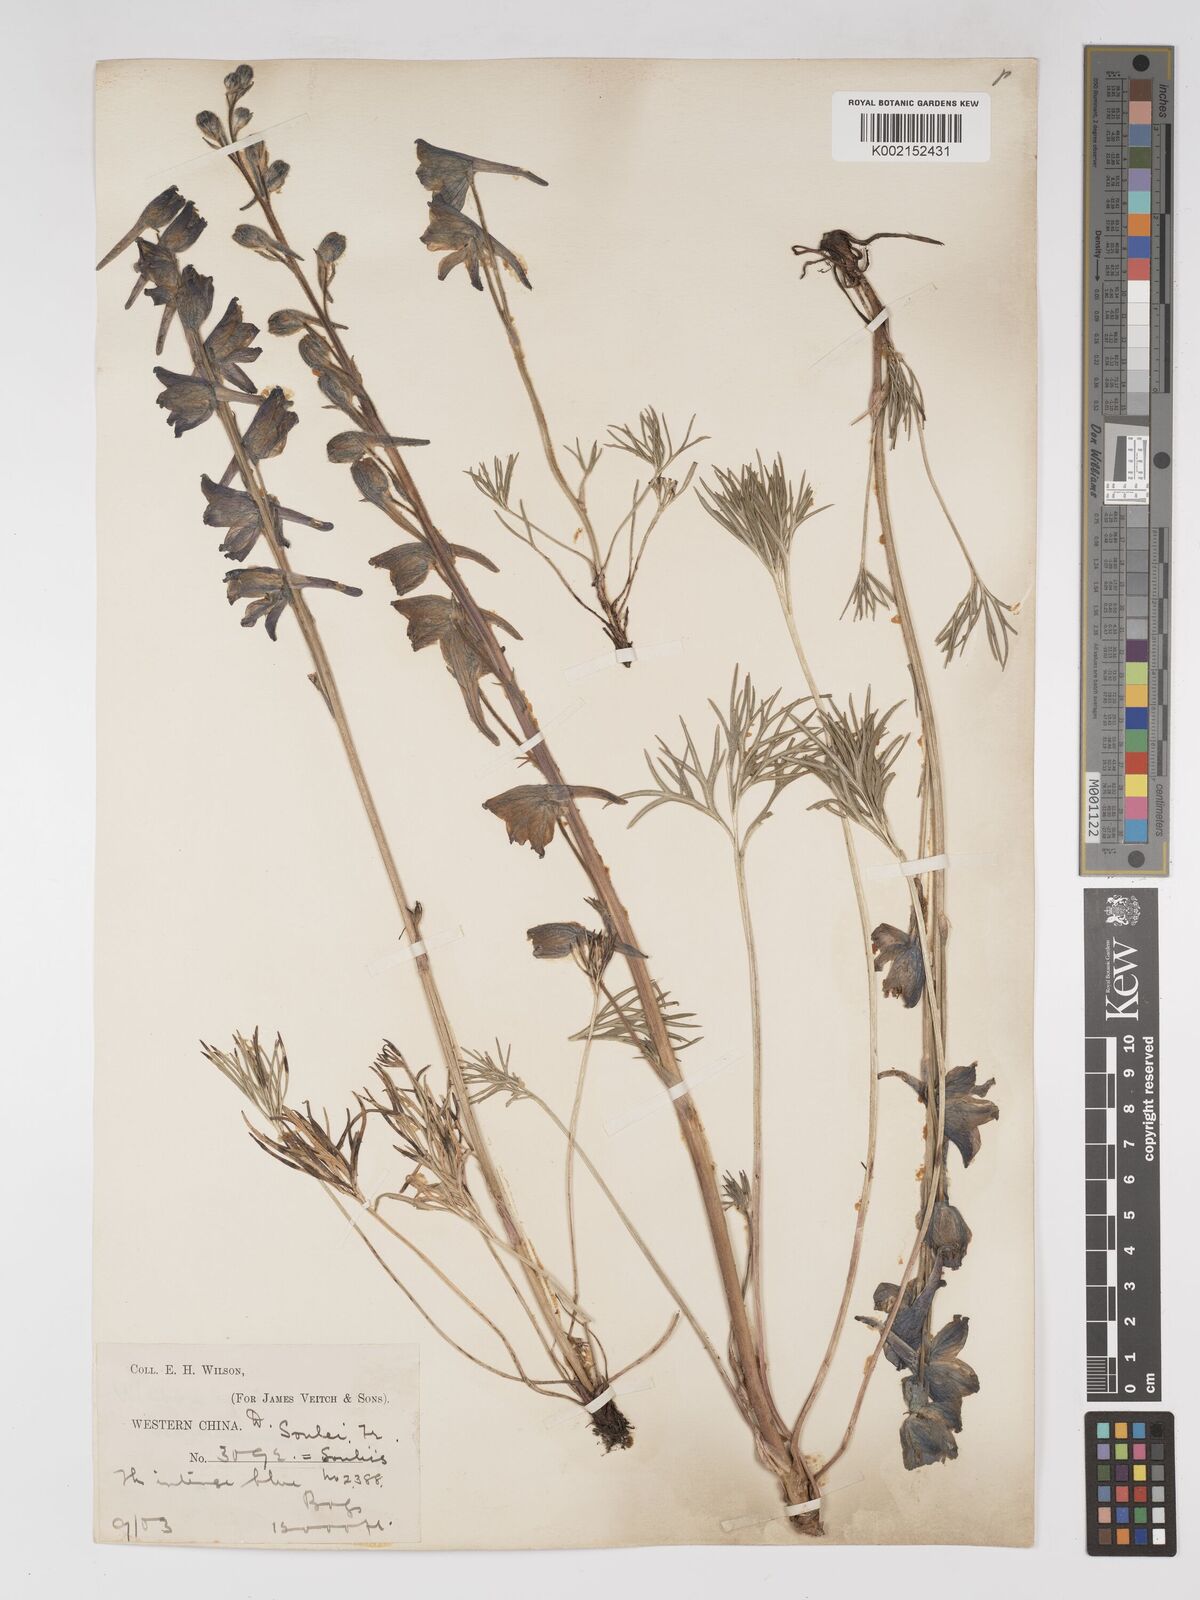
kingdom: Plantae
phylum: Tracheophyta
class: Magnoliopsida
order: Ranunculales
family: Ranunculaceae
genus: Delphinium
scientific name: Delphinium souliei
